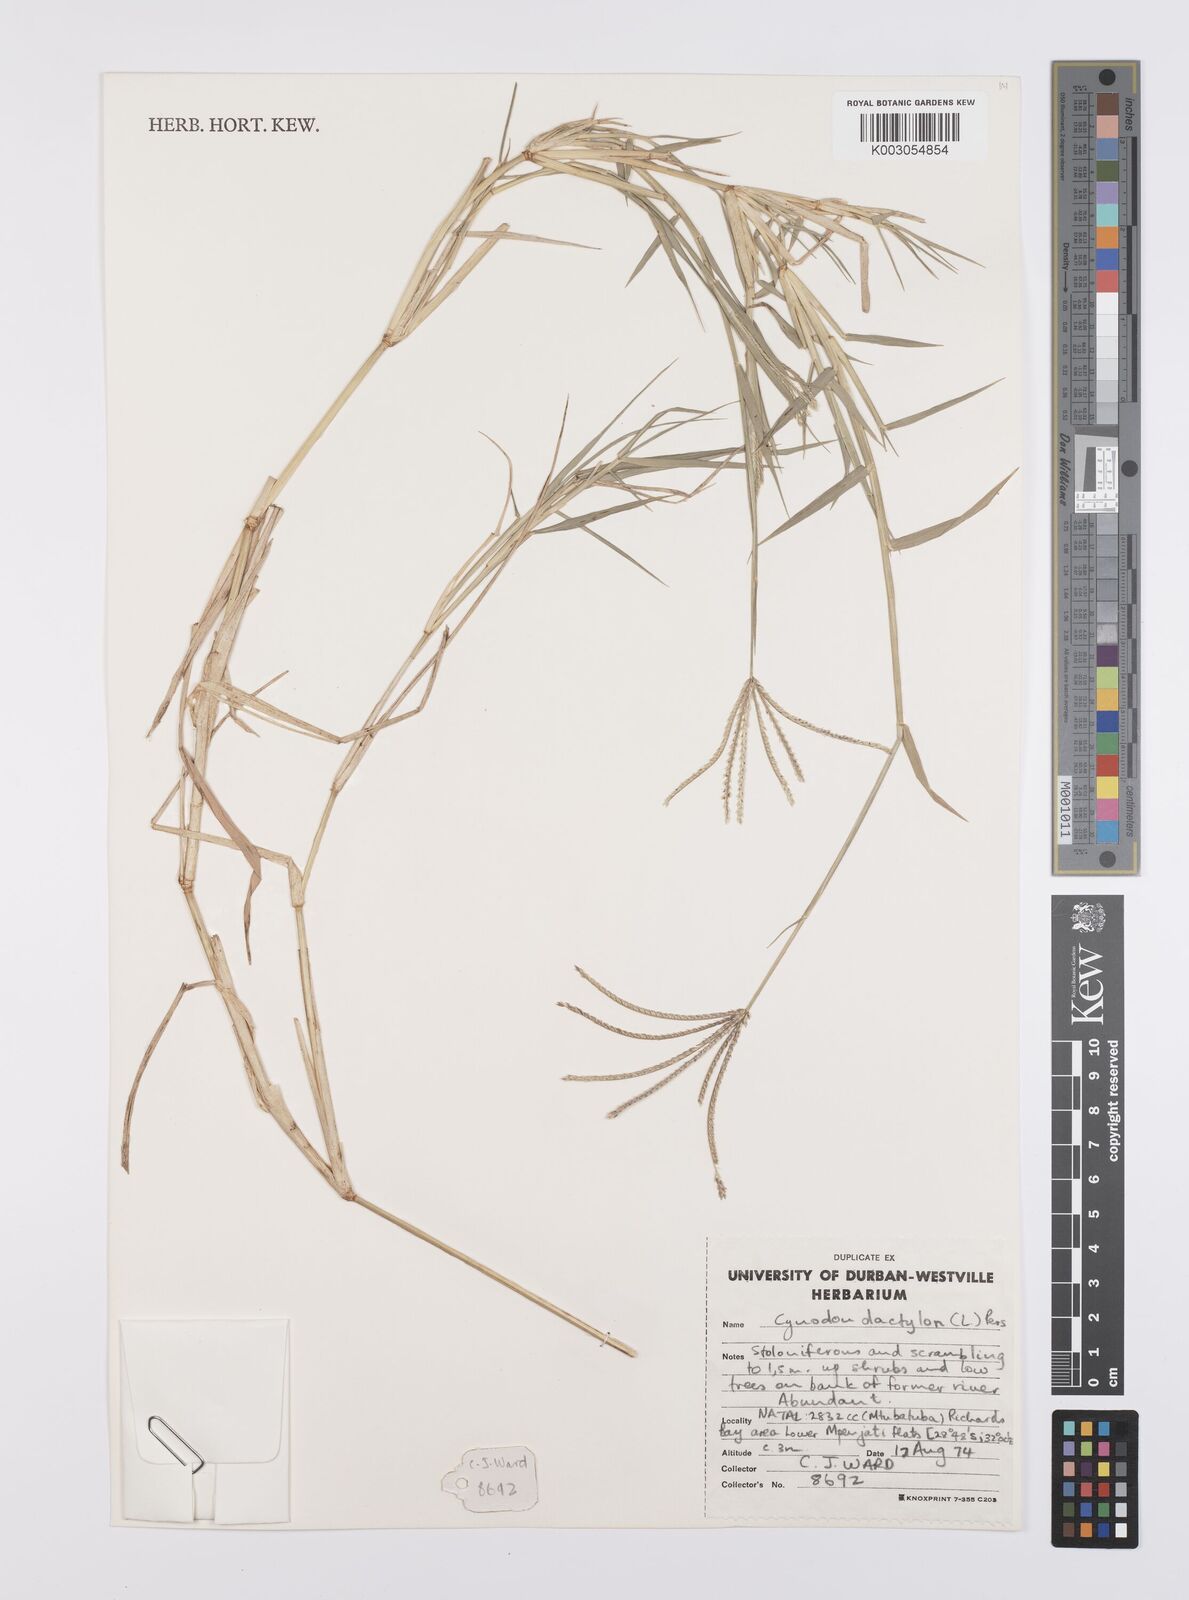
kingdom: Plantae
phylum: Tracheophyta
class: Liliopsida
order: Poales
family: Poaceae
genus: Cynodon
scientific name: Cynodon dactylon
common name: Bermuda grass
